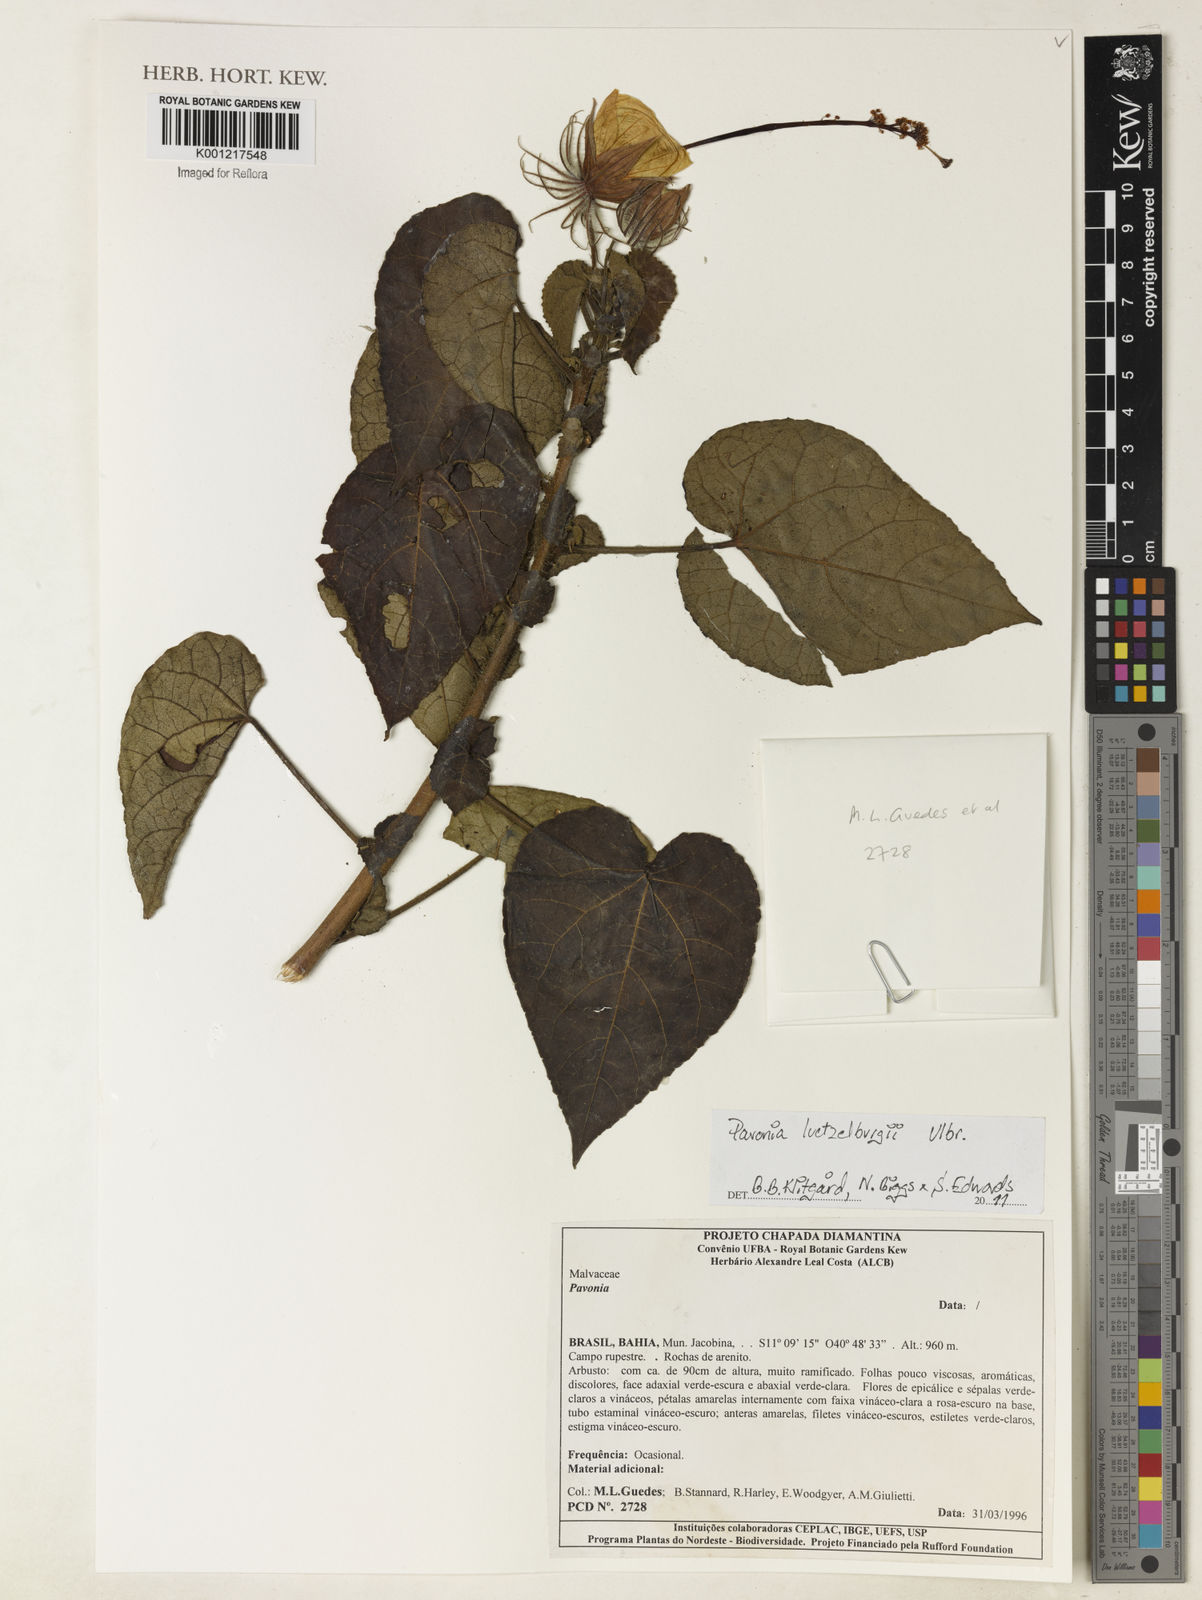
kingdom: Plantae
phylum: Tracheophyta
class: Magnoliopsida
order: Malvales
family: Malvaceae
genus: Pavonia
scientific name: Pavonia luetzelburgii
